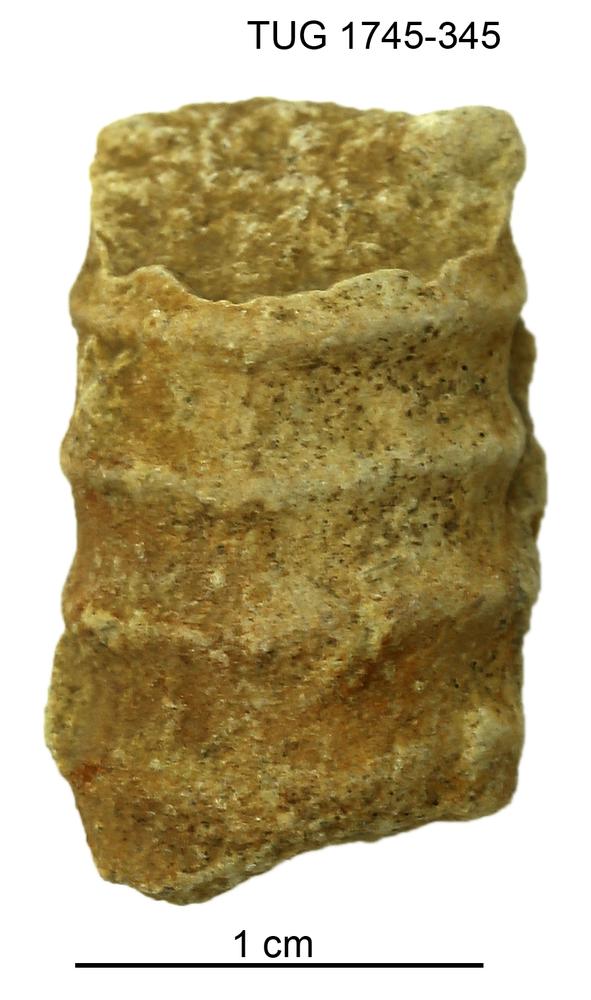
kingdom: Animalia
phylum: Mollusca
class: Cephalopoda
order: Orthocerida
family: Orthoceratidae
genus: Ctenoceras
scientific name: Ctenoceras
